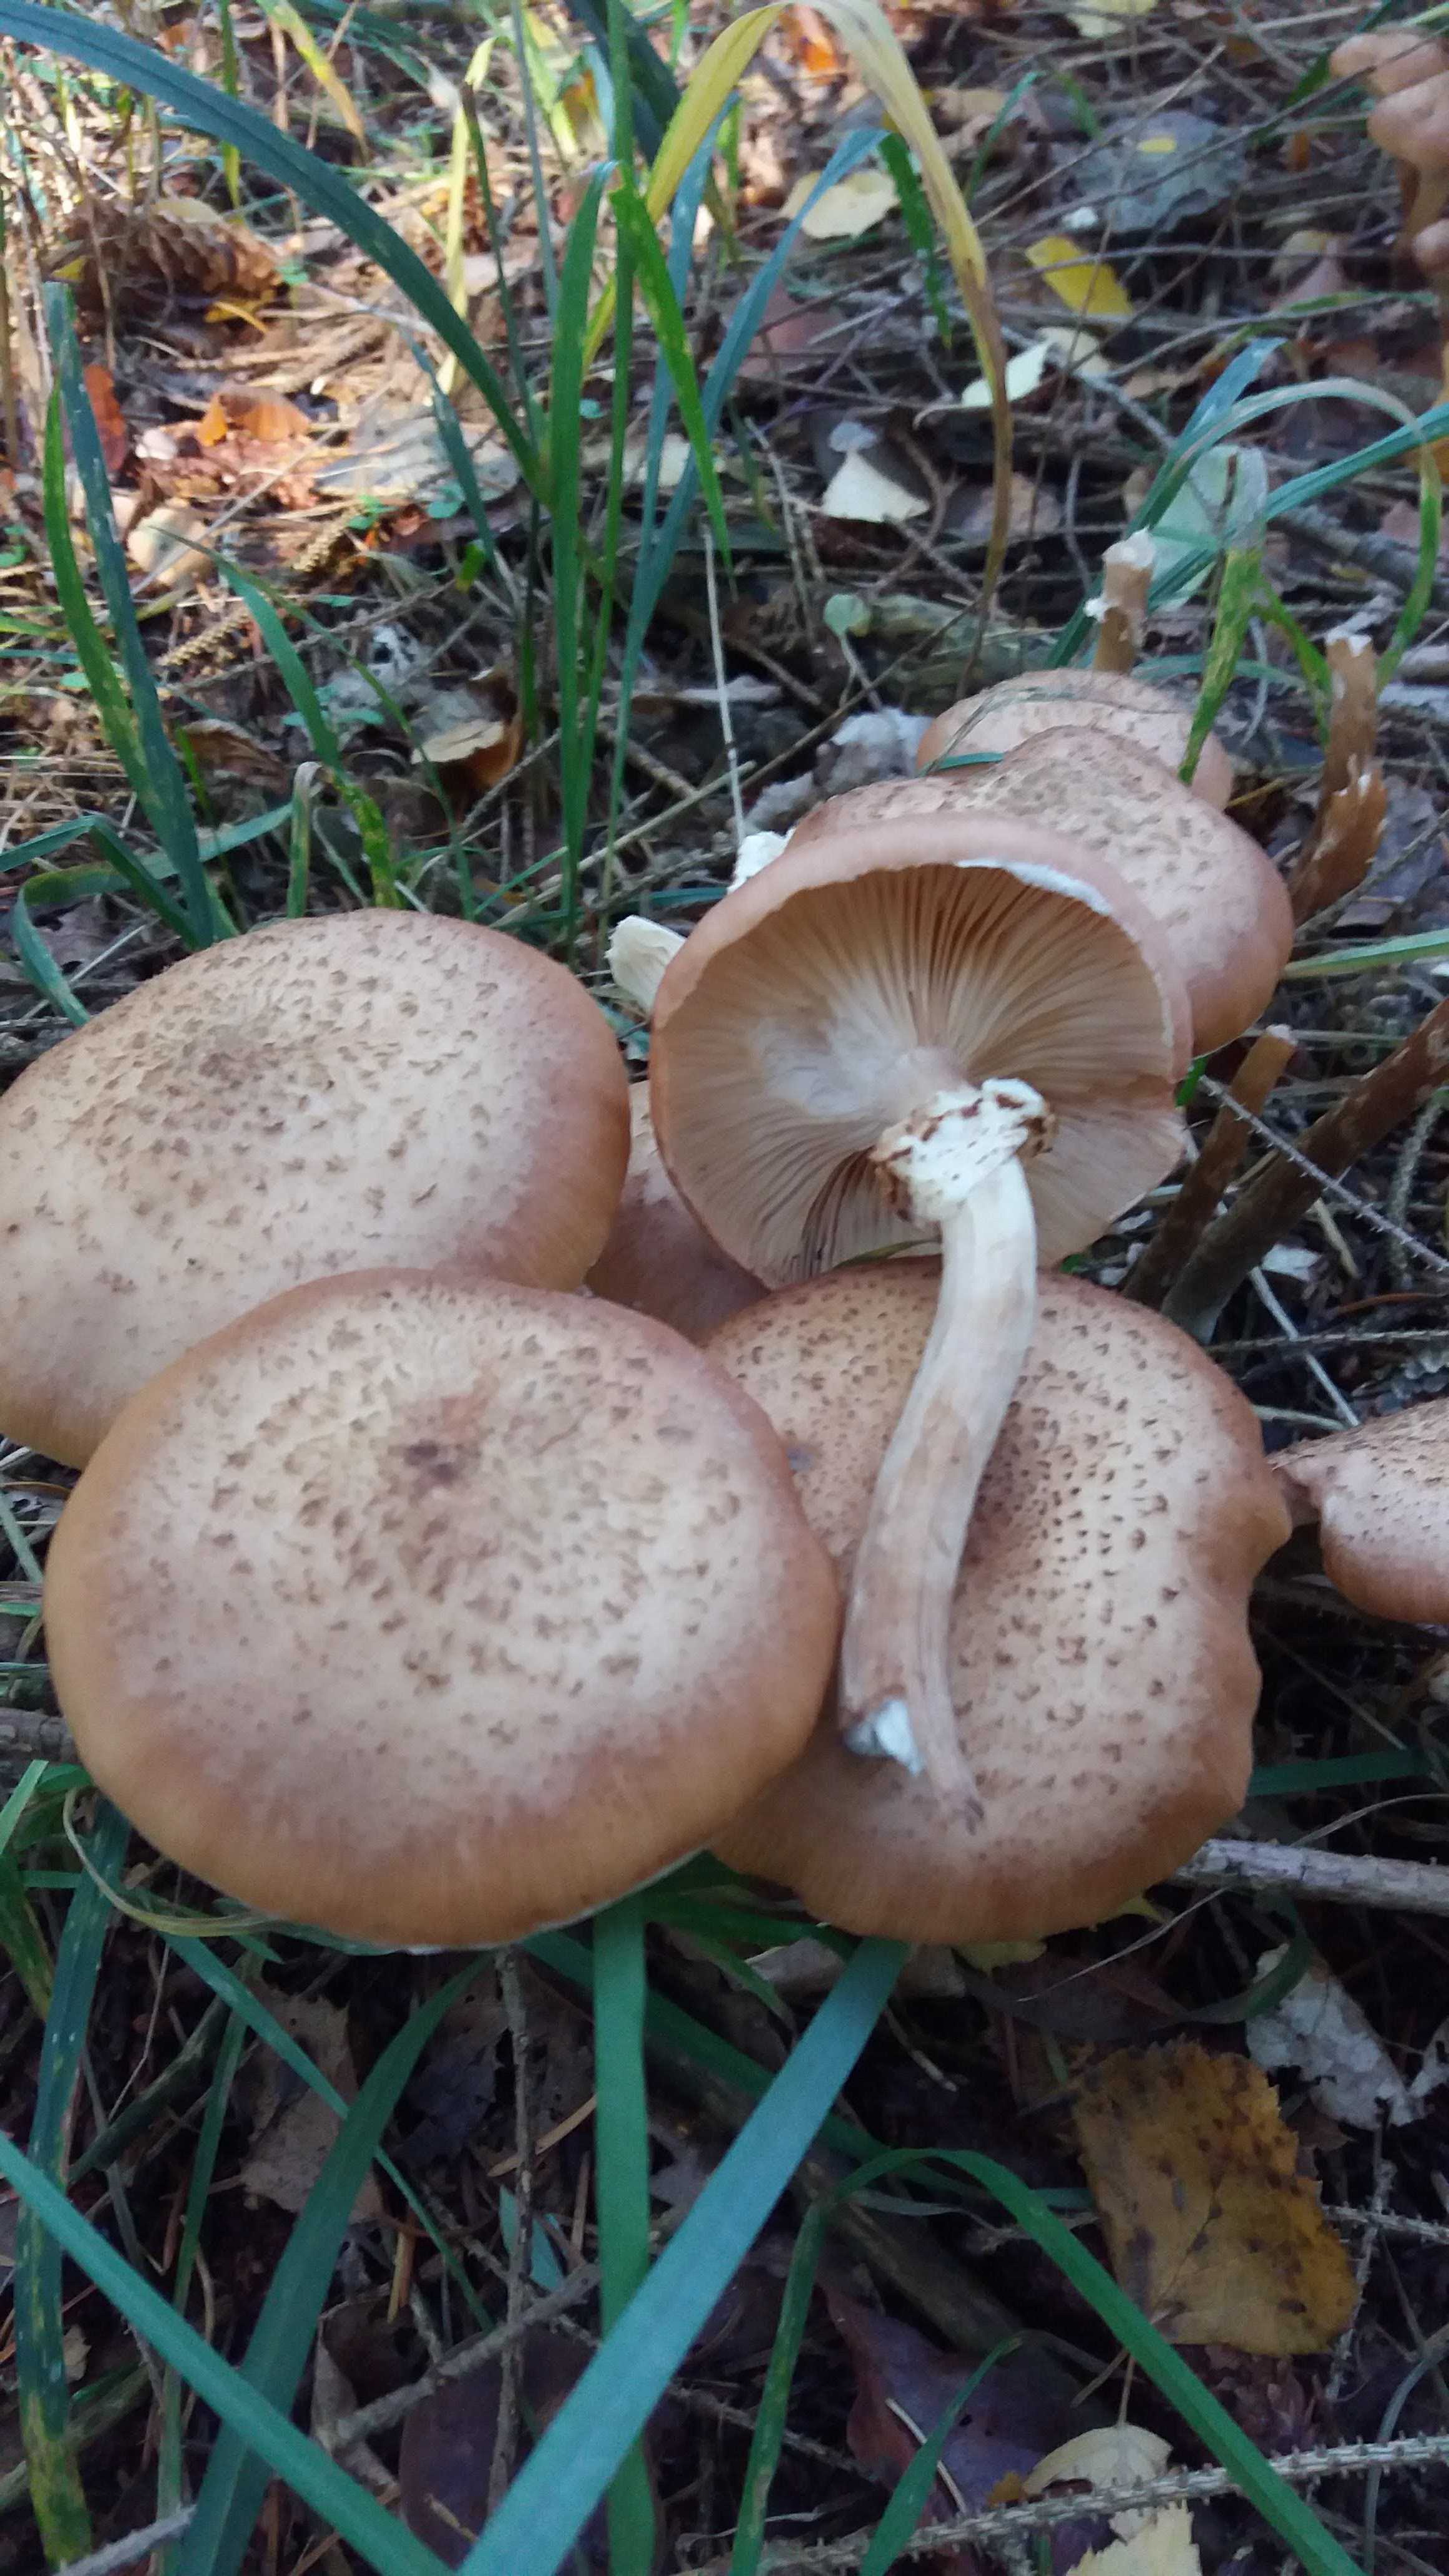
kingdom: Fungi
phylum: Basidiomycota
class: Agaricomycetes
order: Agaricales
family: Physalacriaceae
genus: Armillaria
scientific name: Armillaria ostoyae
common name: mørk honningsvamp
